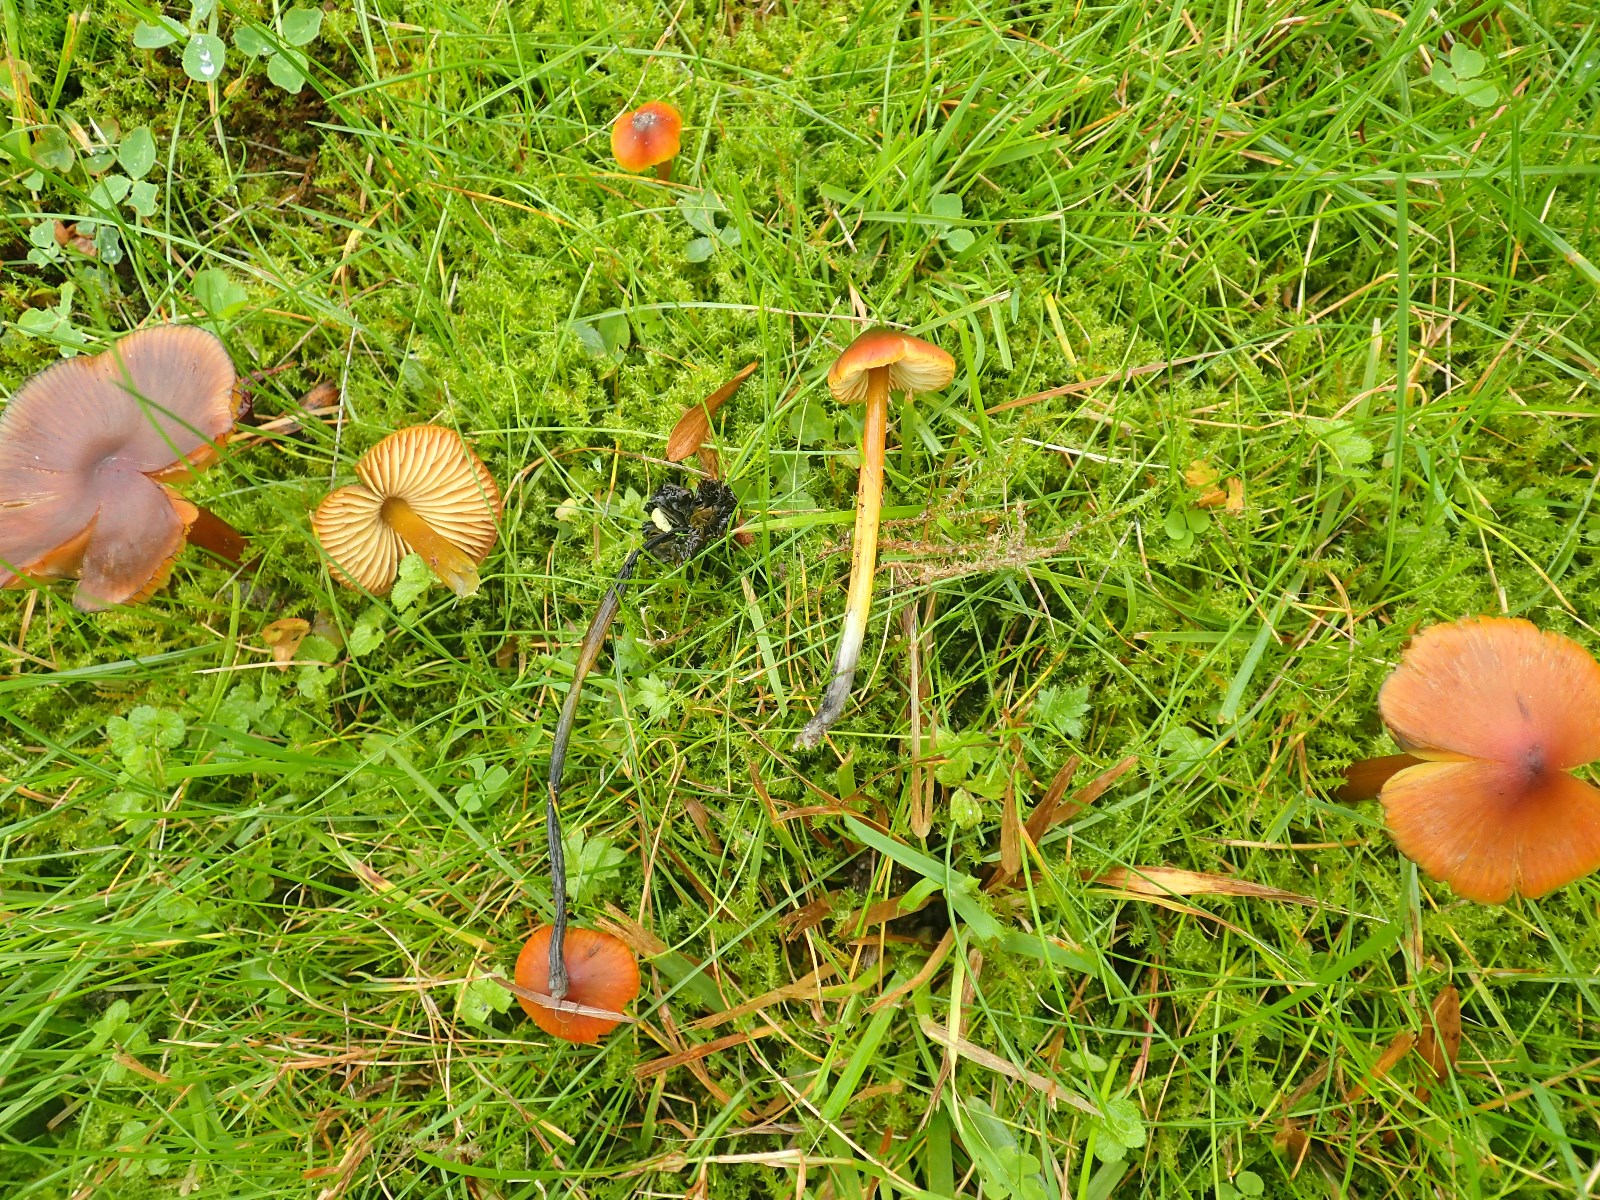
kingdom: Fungi
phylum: Basidiomycota
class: Agaricomycetes
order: Agaricales
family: Hygrophoraceae
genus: Hygrocybe
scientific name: Hygrocybe conica
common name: kegle-vokshat
